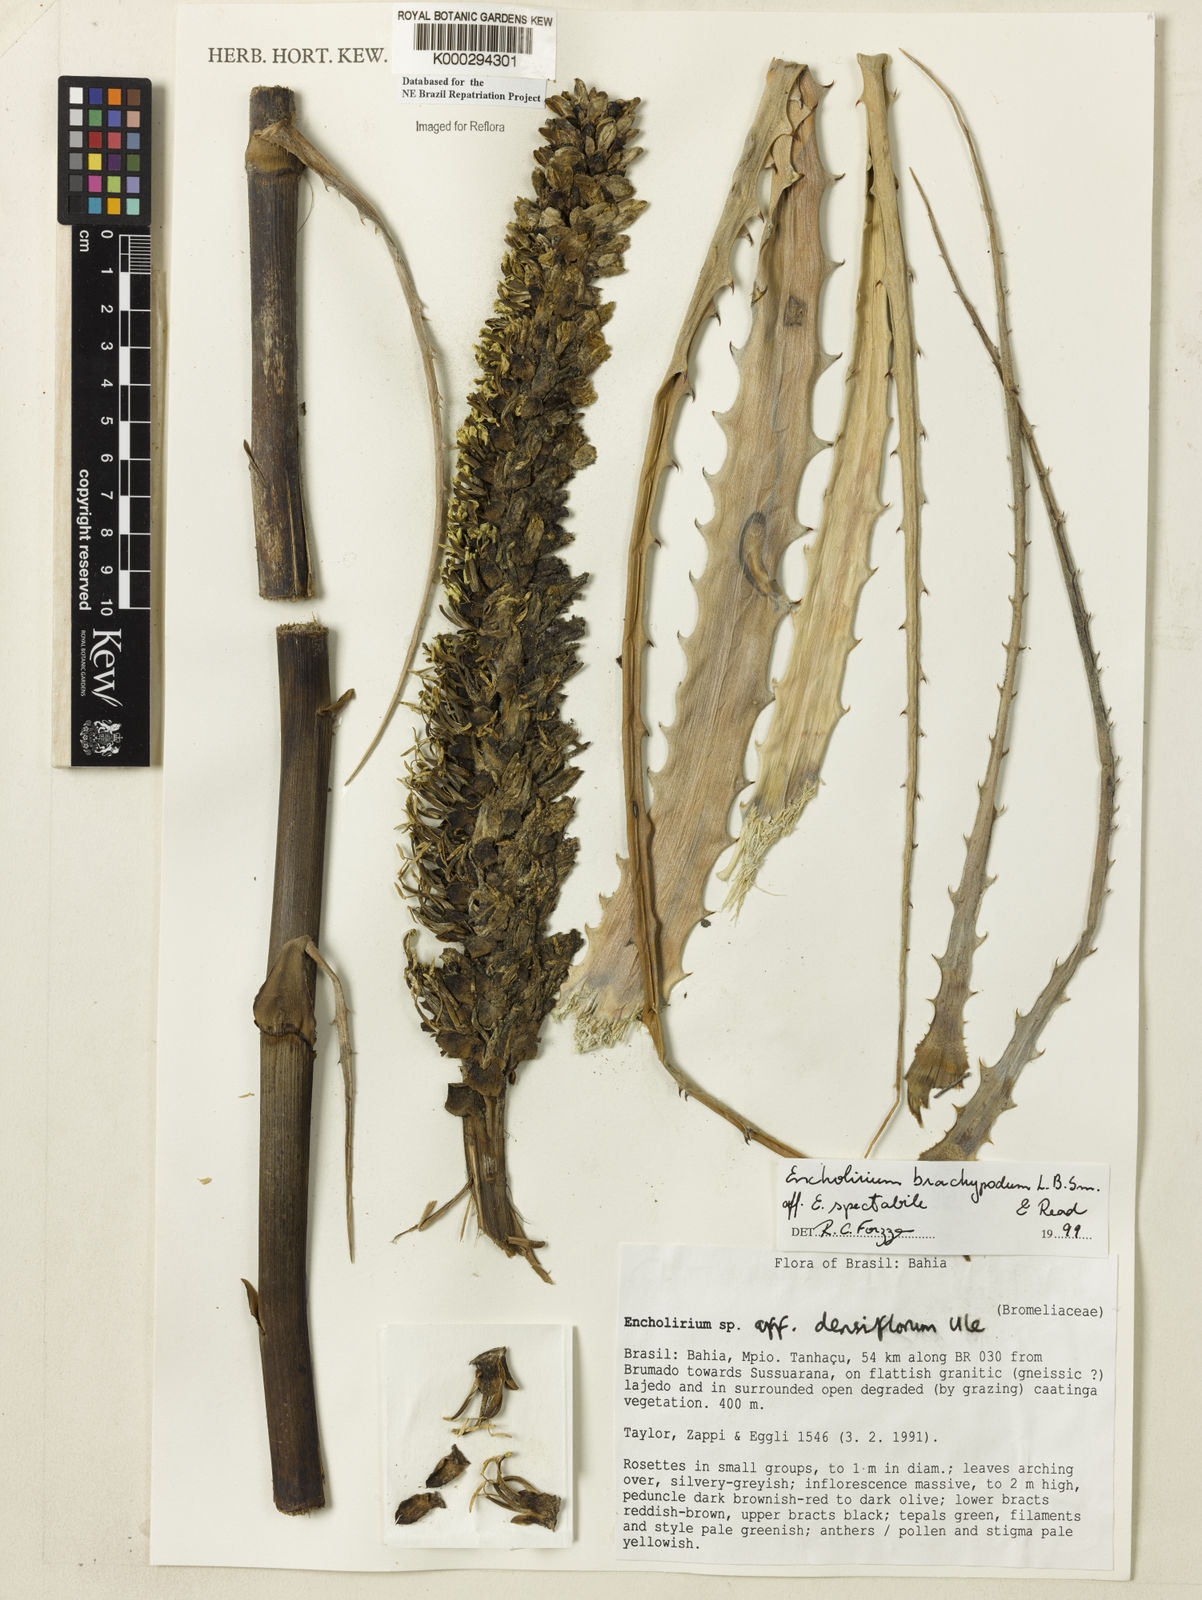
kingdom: Plantae
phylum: Tracheophyta
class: Liliopsida
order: Poales
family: Bromeliaceae
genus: Encholirium
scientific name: Encholirium brachypodum
